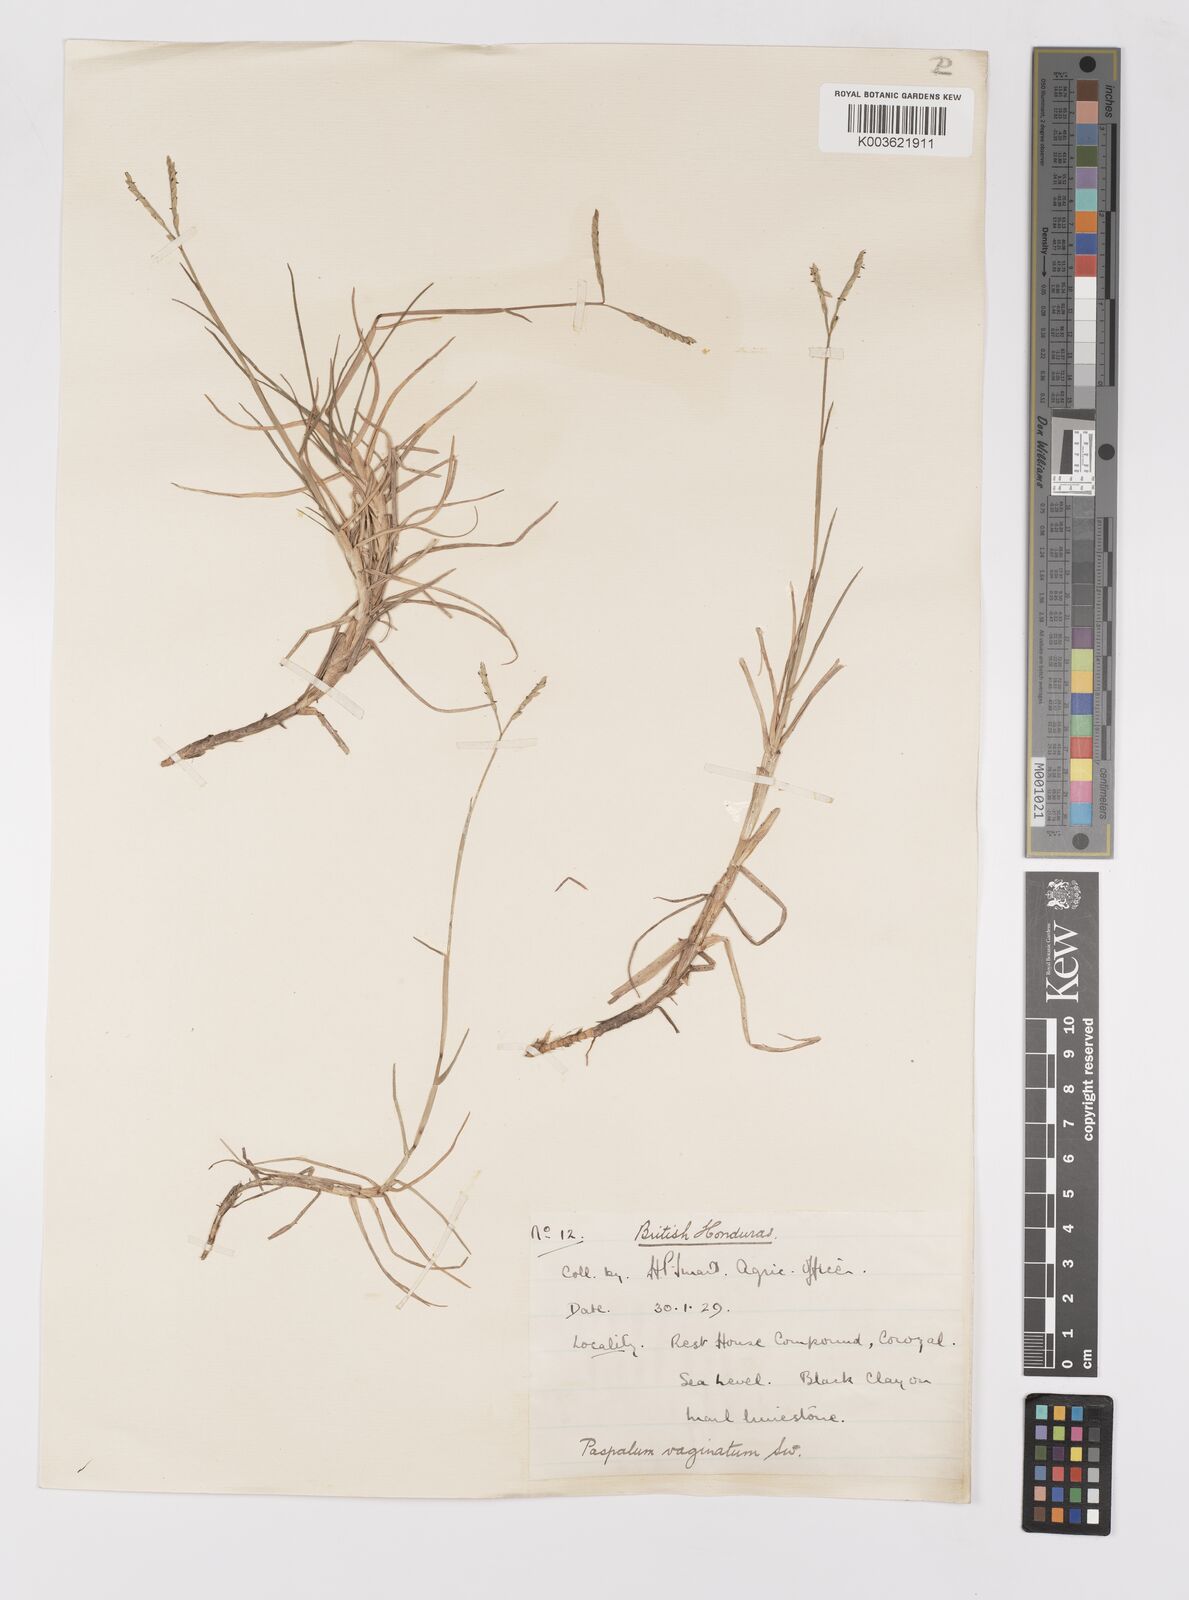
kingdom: Plantae
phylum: Tracheophyta
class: Liliopsida
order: Poales
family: Poaceae
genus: Paspalum
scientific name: Paspalum vaginatum
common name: Seashore paspalum
